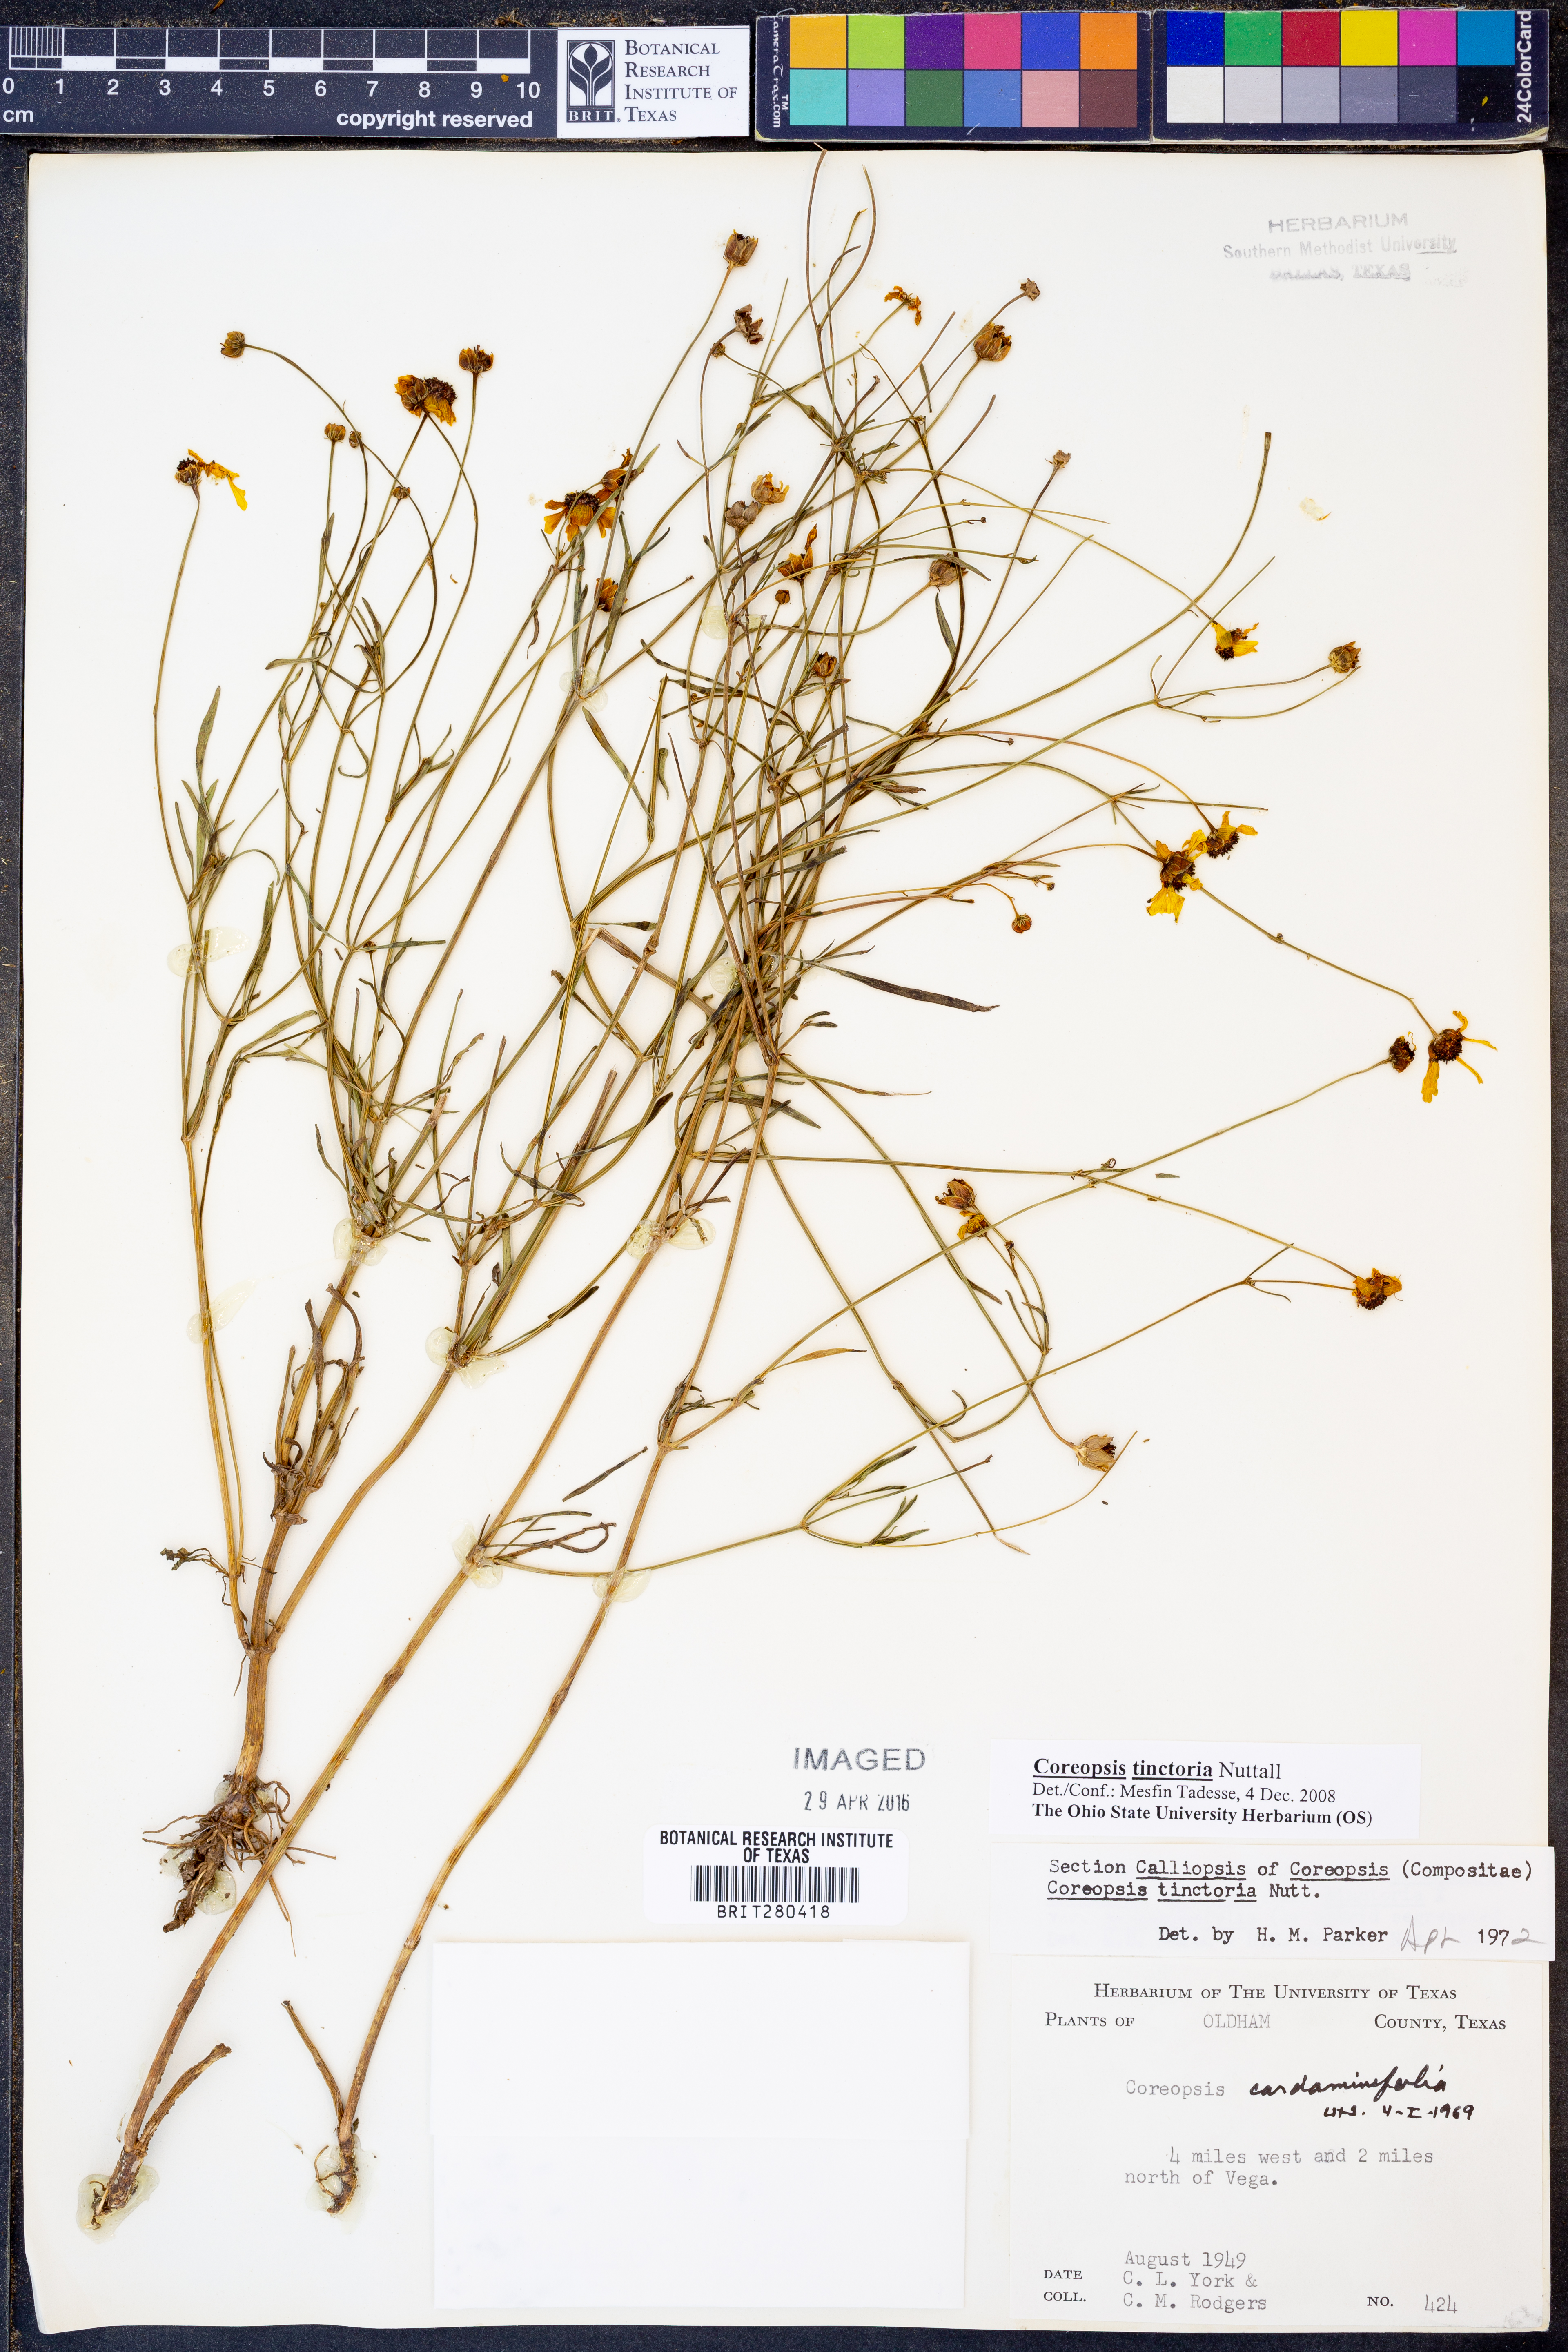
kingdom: Plantae
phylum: Tracheophyta
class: Magnoliopsida
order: Asterales
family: Asteraceae
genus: Coreopsis
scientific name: Coreopsis tinctoria
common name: Garden tickseed
